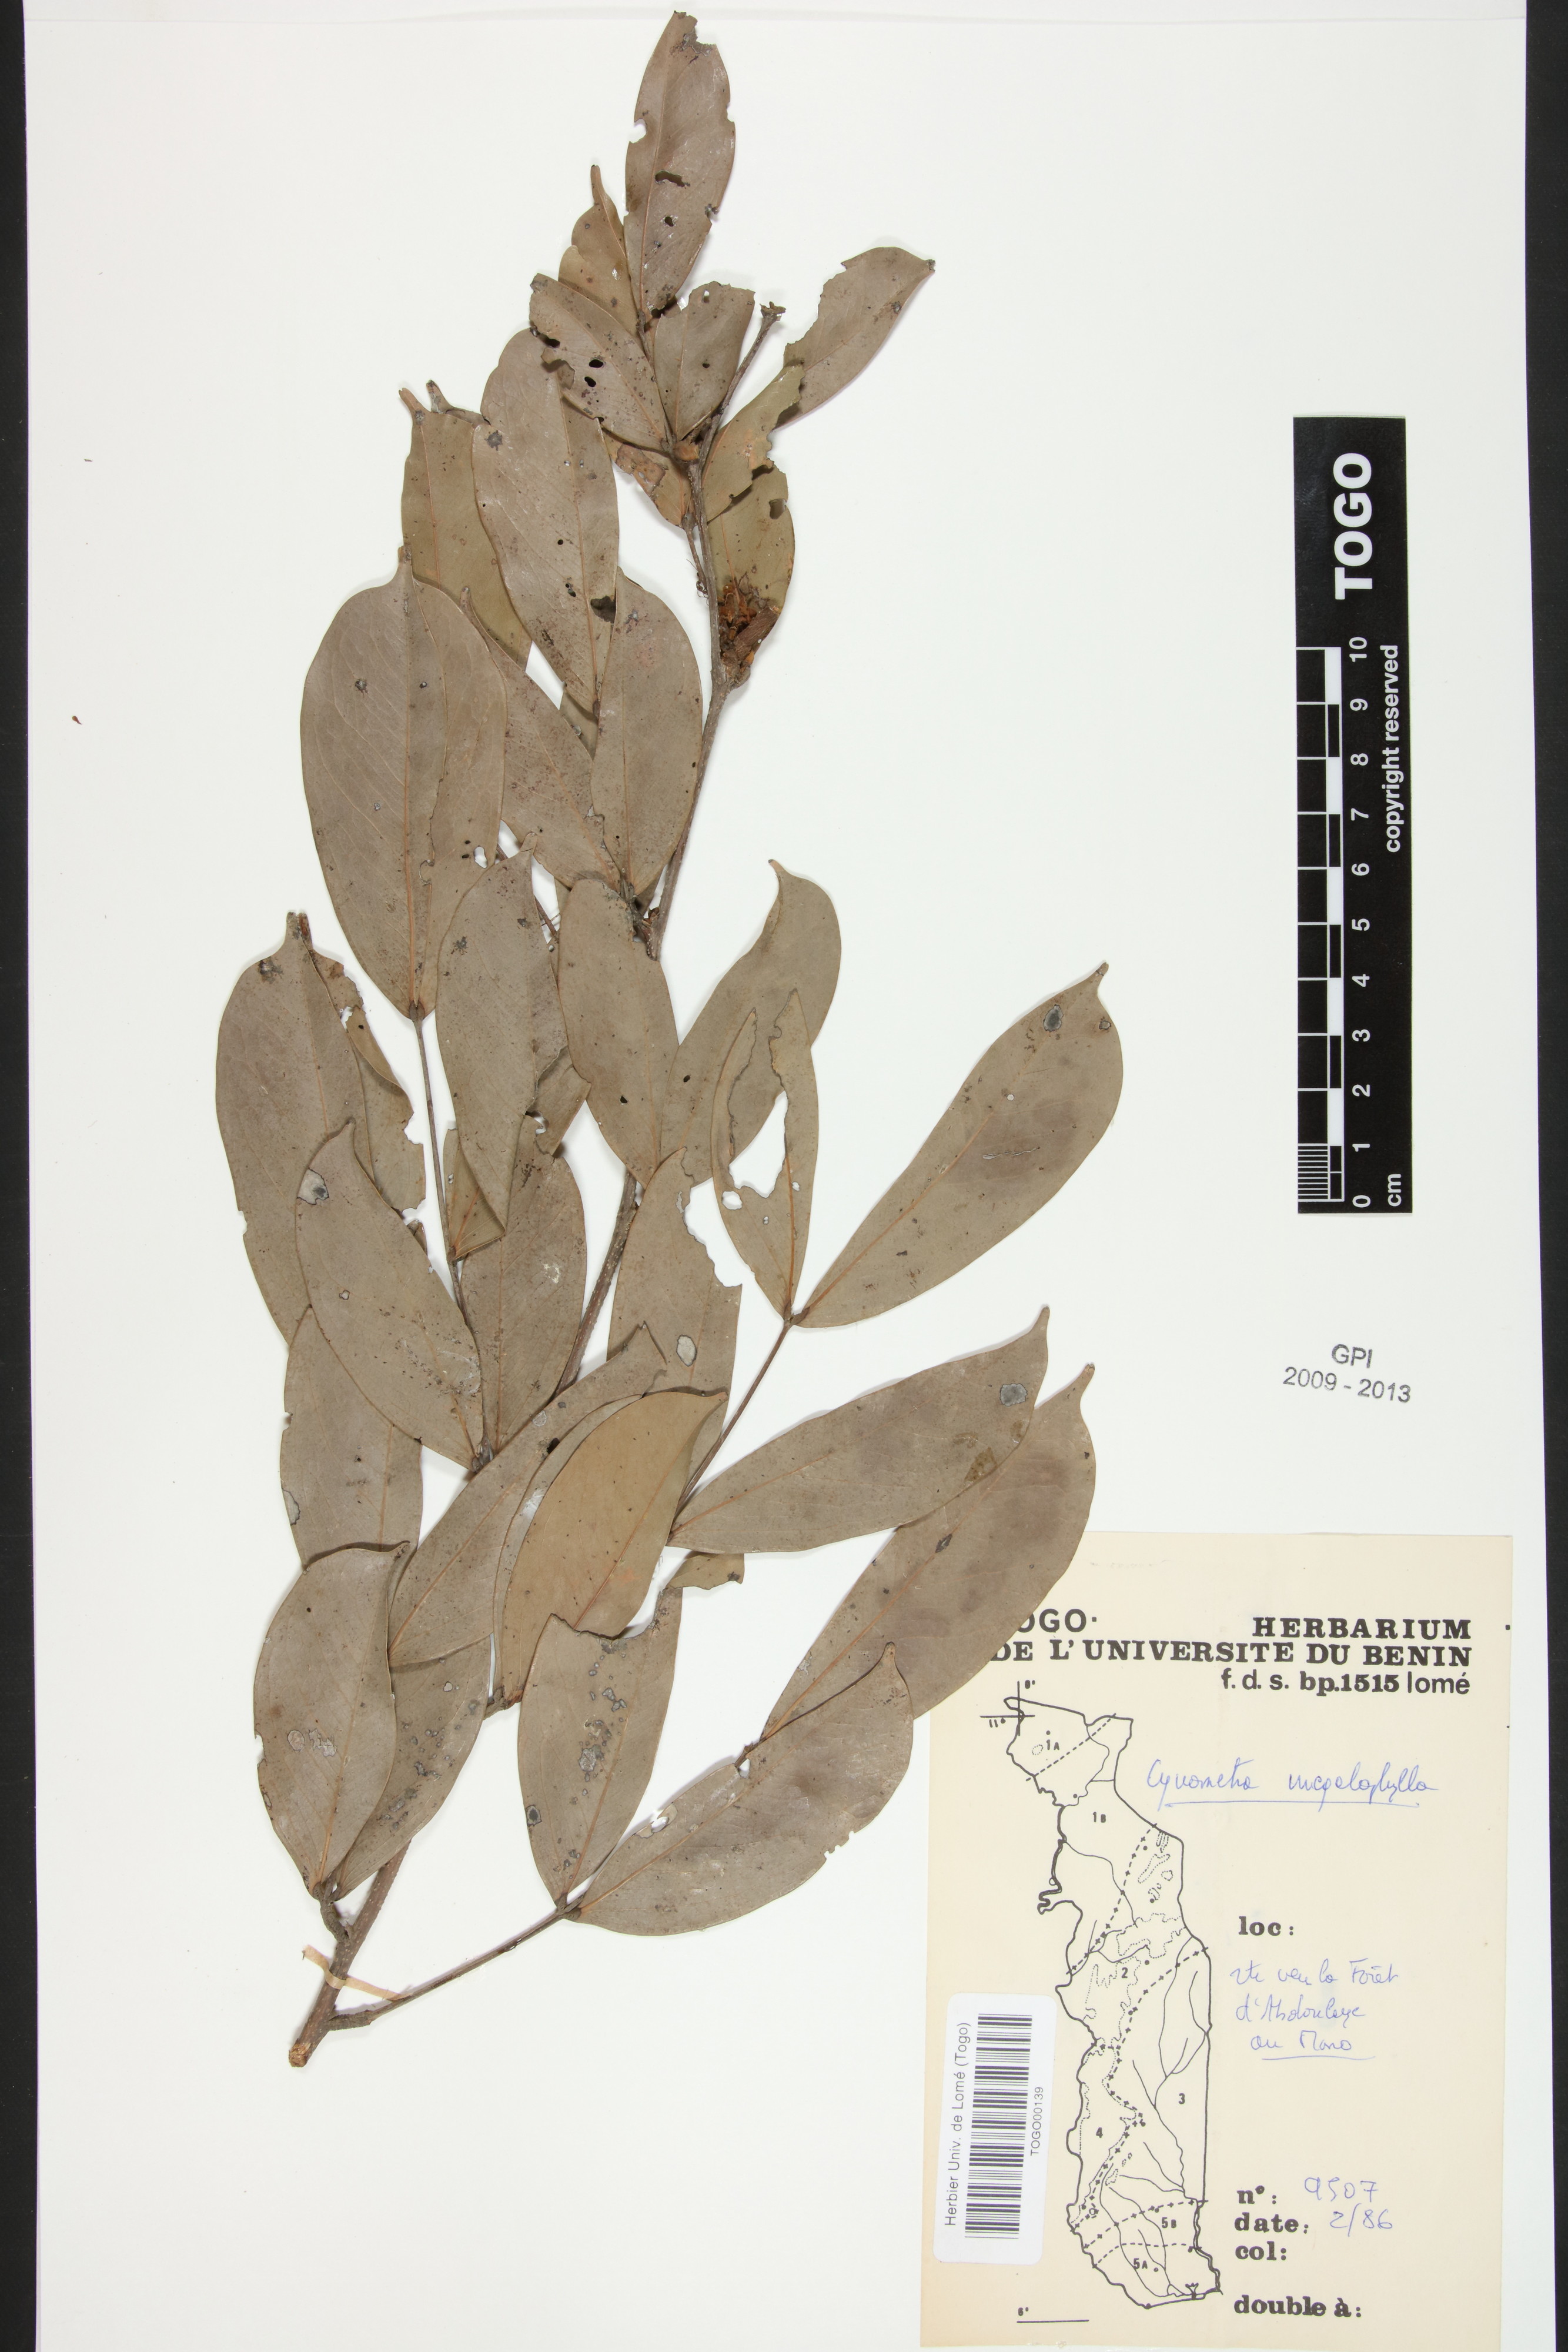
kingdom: Plantae
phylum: Tracheophyta
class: Magnoliopsida
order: Fabales
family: Fabaceae
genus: Cynometra
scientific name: Cynometra megalophylla
